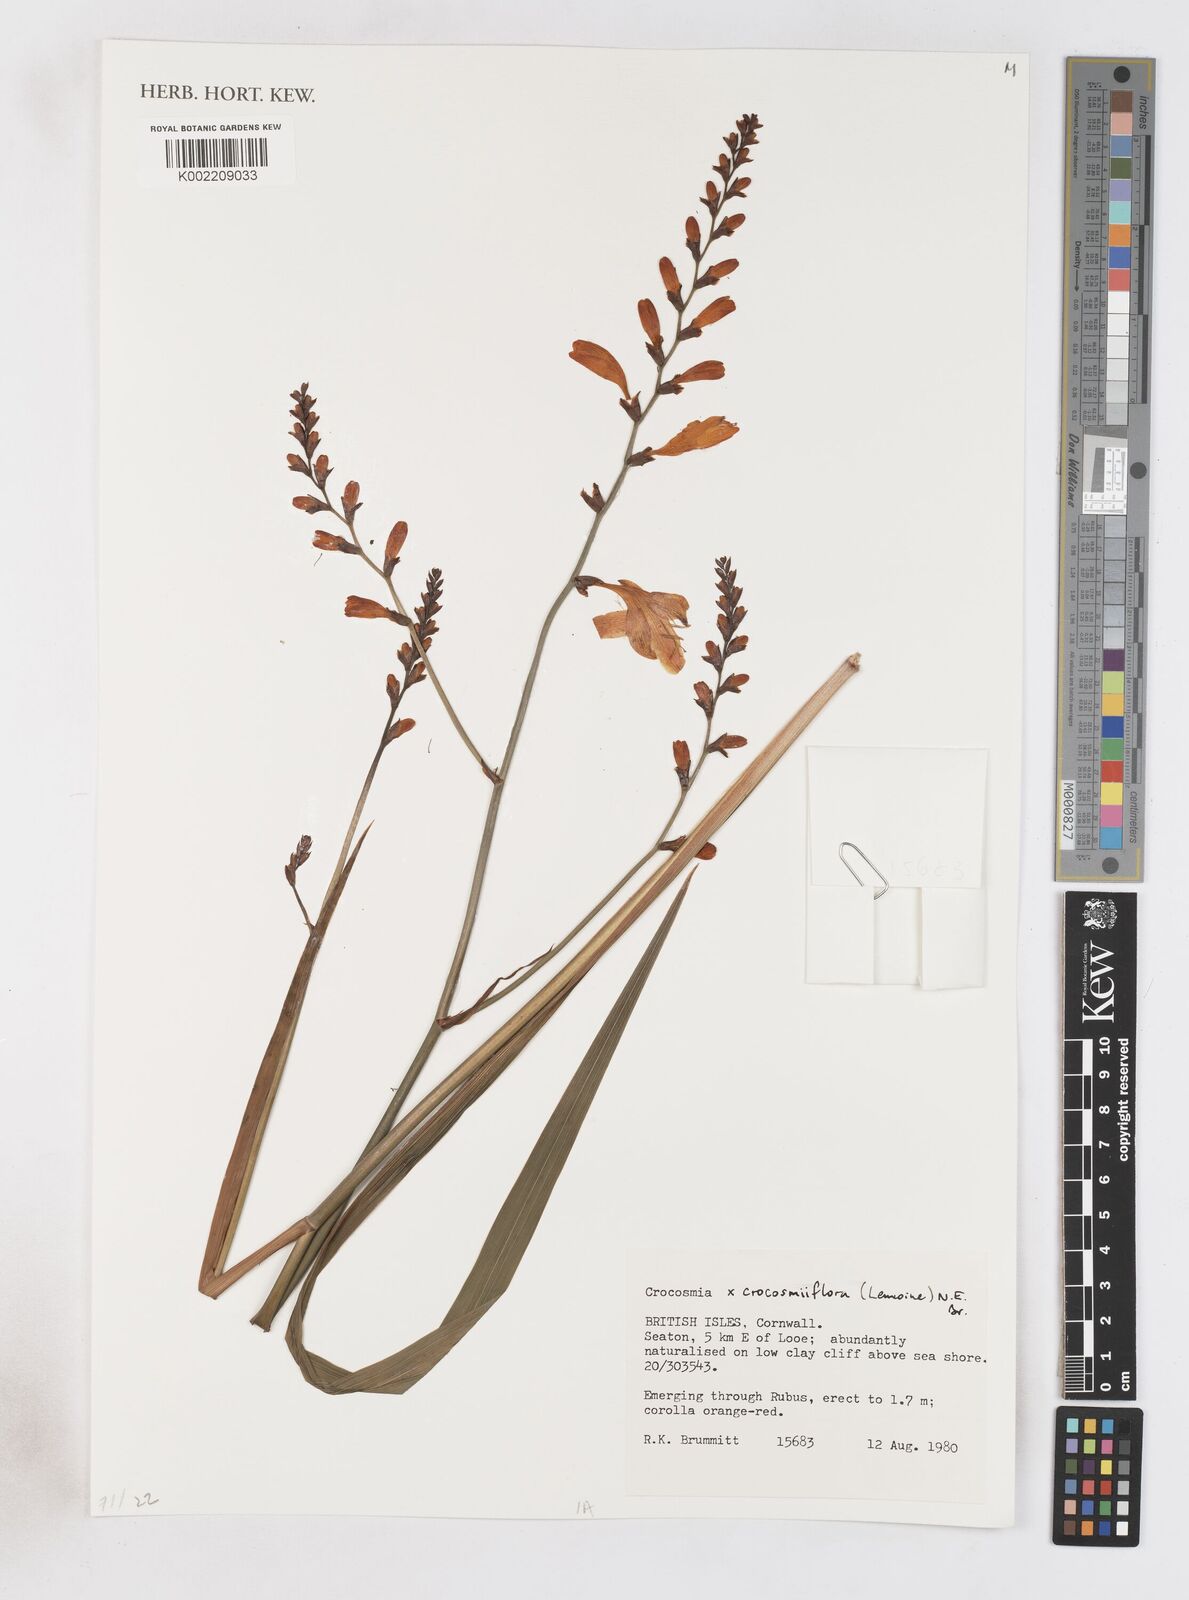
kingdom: Plantae
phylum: Tracheophyta
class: Liliopsida
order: Asparagales
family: Iridaceae
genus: Crocosmia
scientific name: Crocosmia crocosmiiflora
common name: Montbretia
